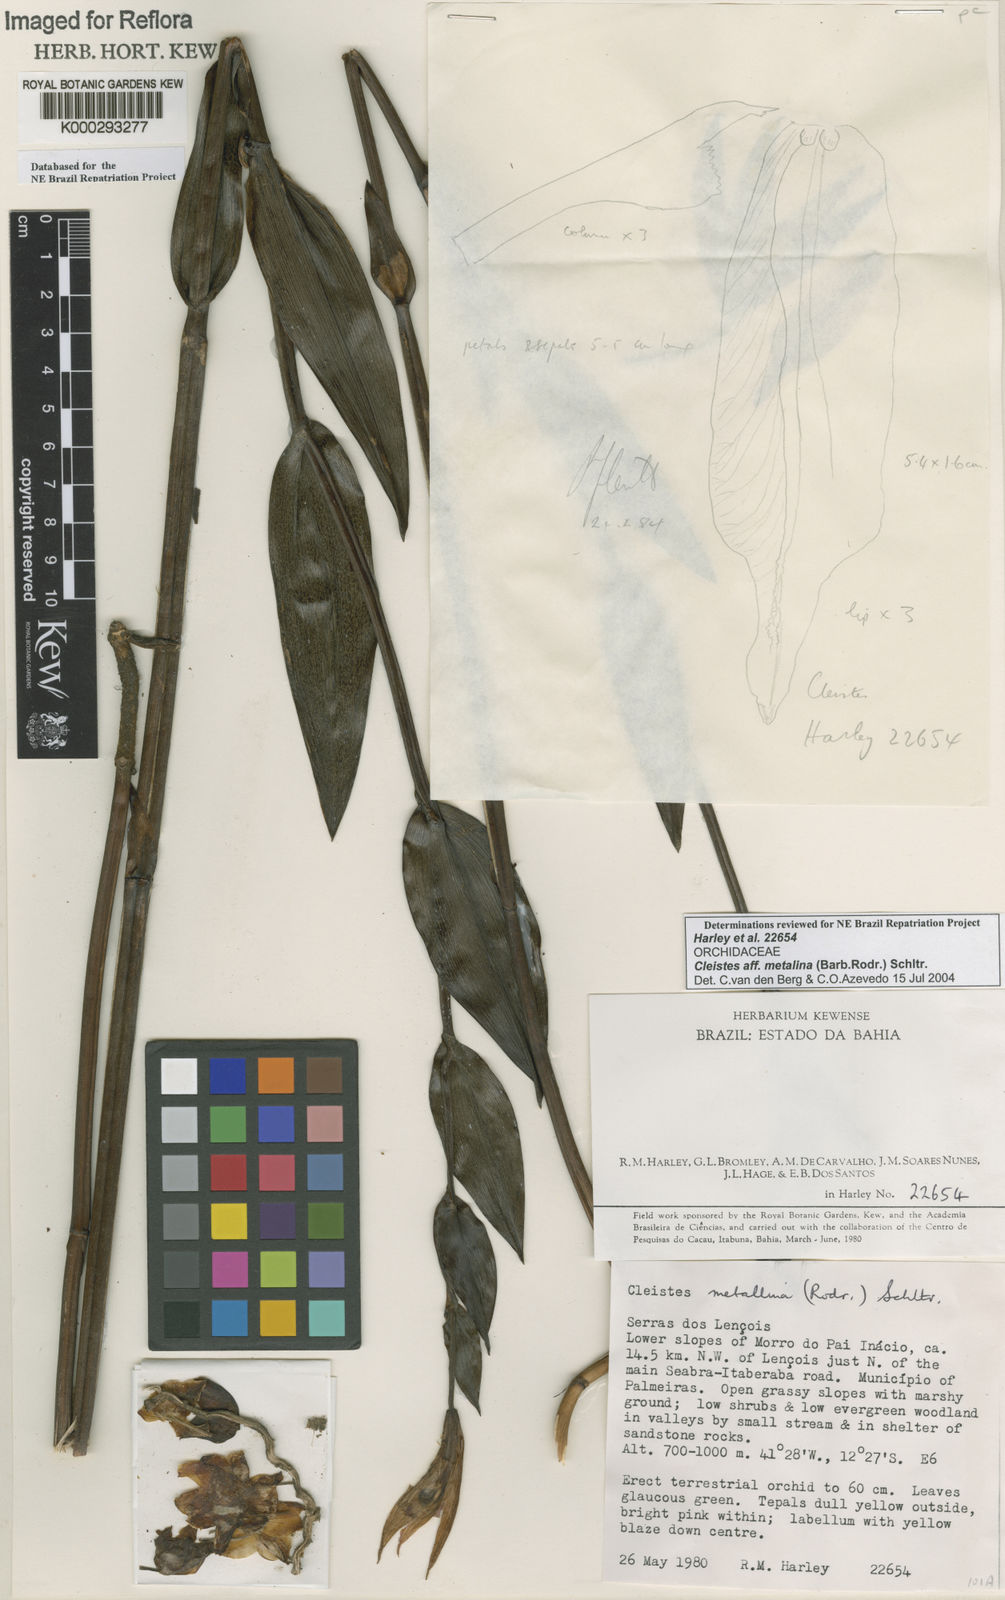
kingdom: Plantae
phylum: Tracheophyta
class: Liliopsida
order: Asparagales
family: Orchidaceae
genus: Cleistes
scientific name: Cleistes speciosa
